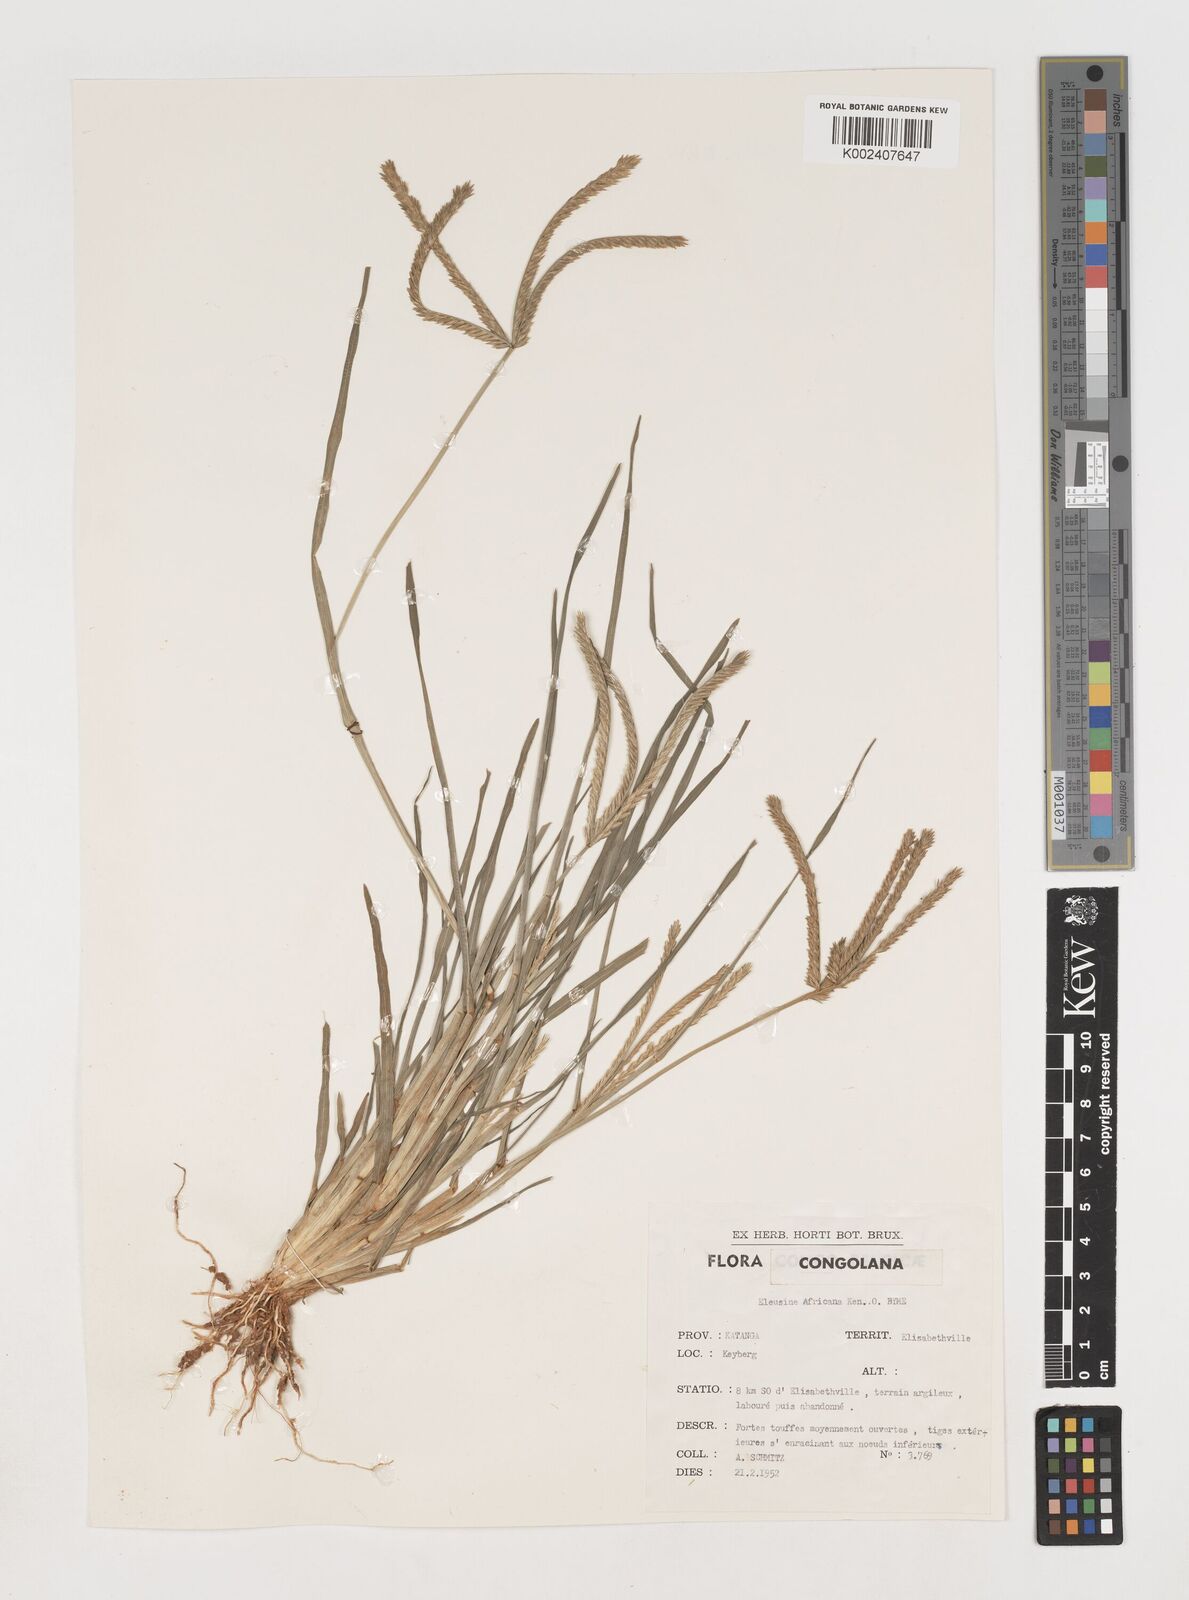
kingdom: Plantae
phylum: Tracheophyta
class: Liliopsida
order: Poales
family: Poaceae
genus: Eleusine
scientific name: Eleusine africana
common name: Wild african finger millet
